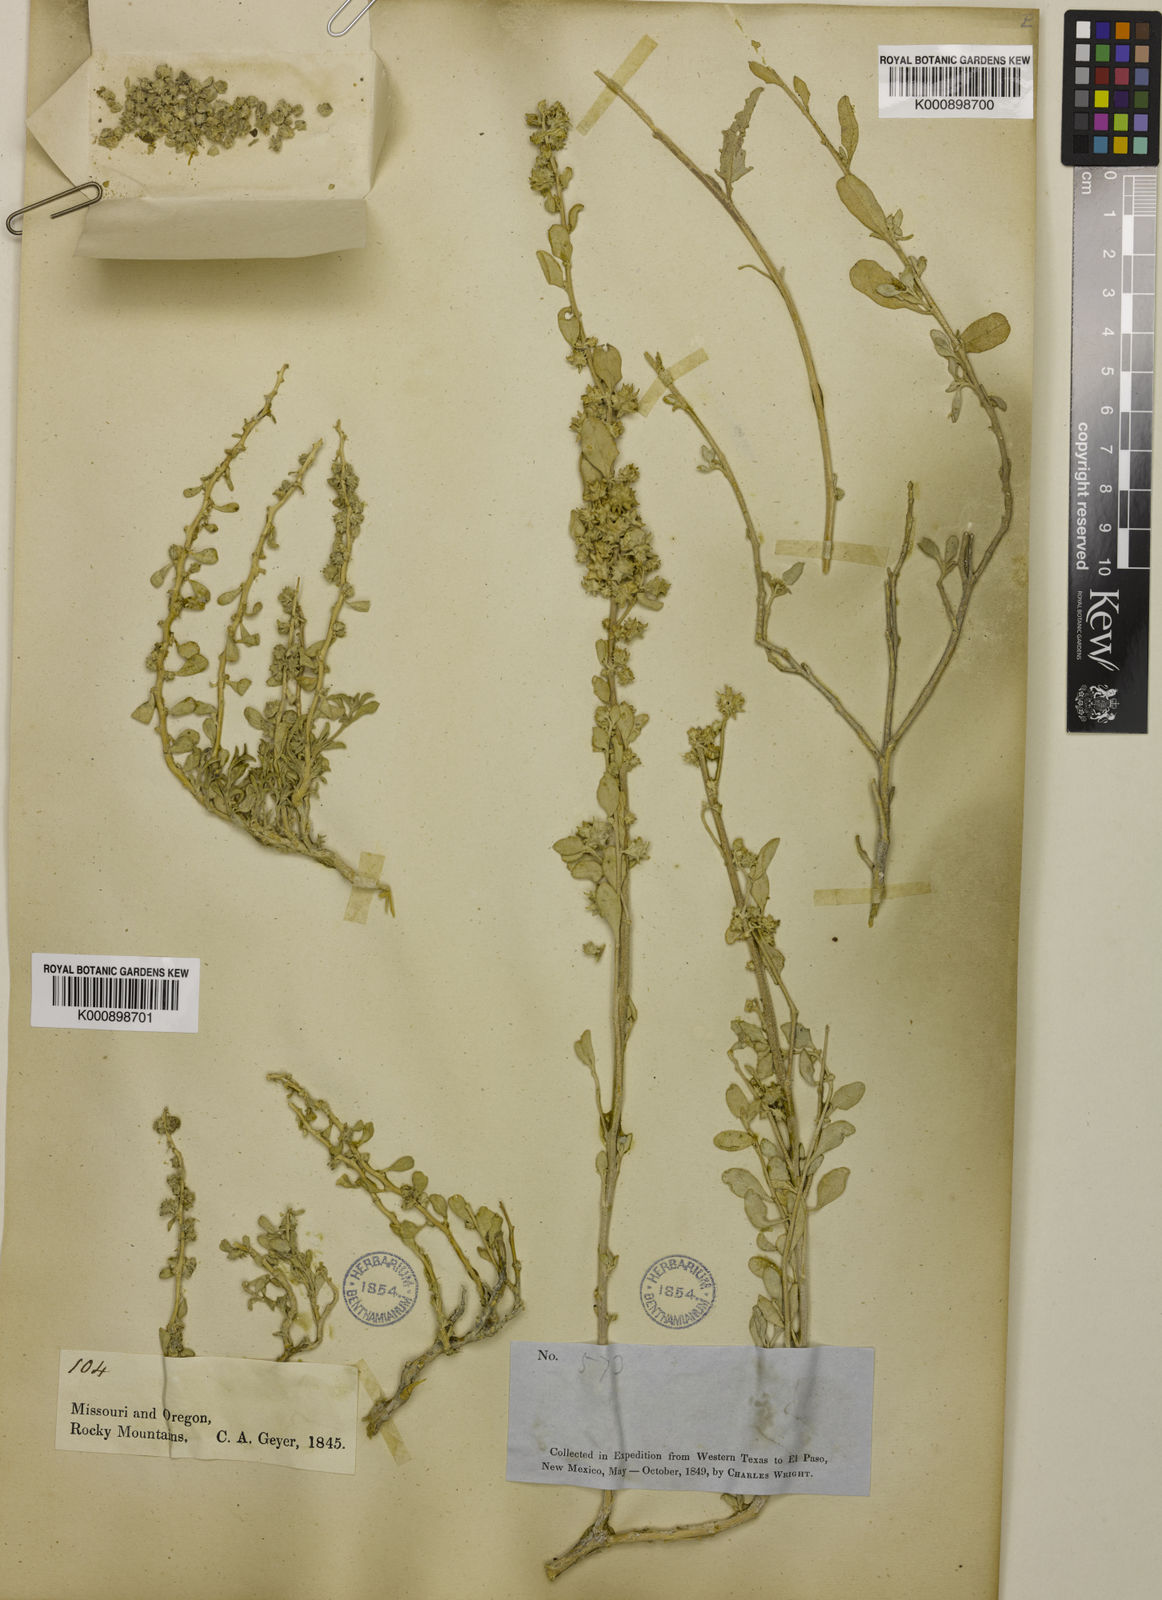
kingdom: Plantae
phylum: Tracheophyta
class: Magnoliopsida
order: Caryophyllales
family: Amaranthaceae
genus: Atriplex
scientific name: Atriplex acanthocarpa
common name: Burscale
